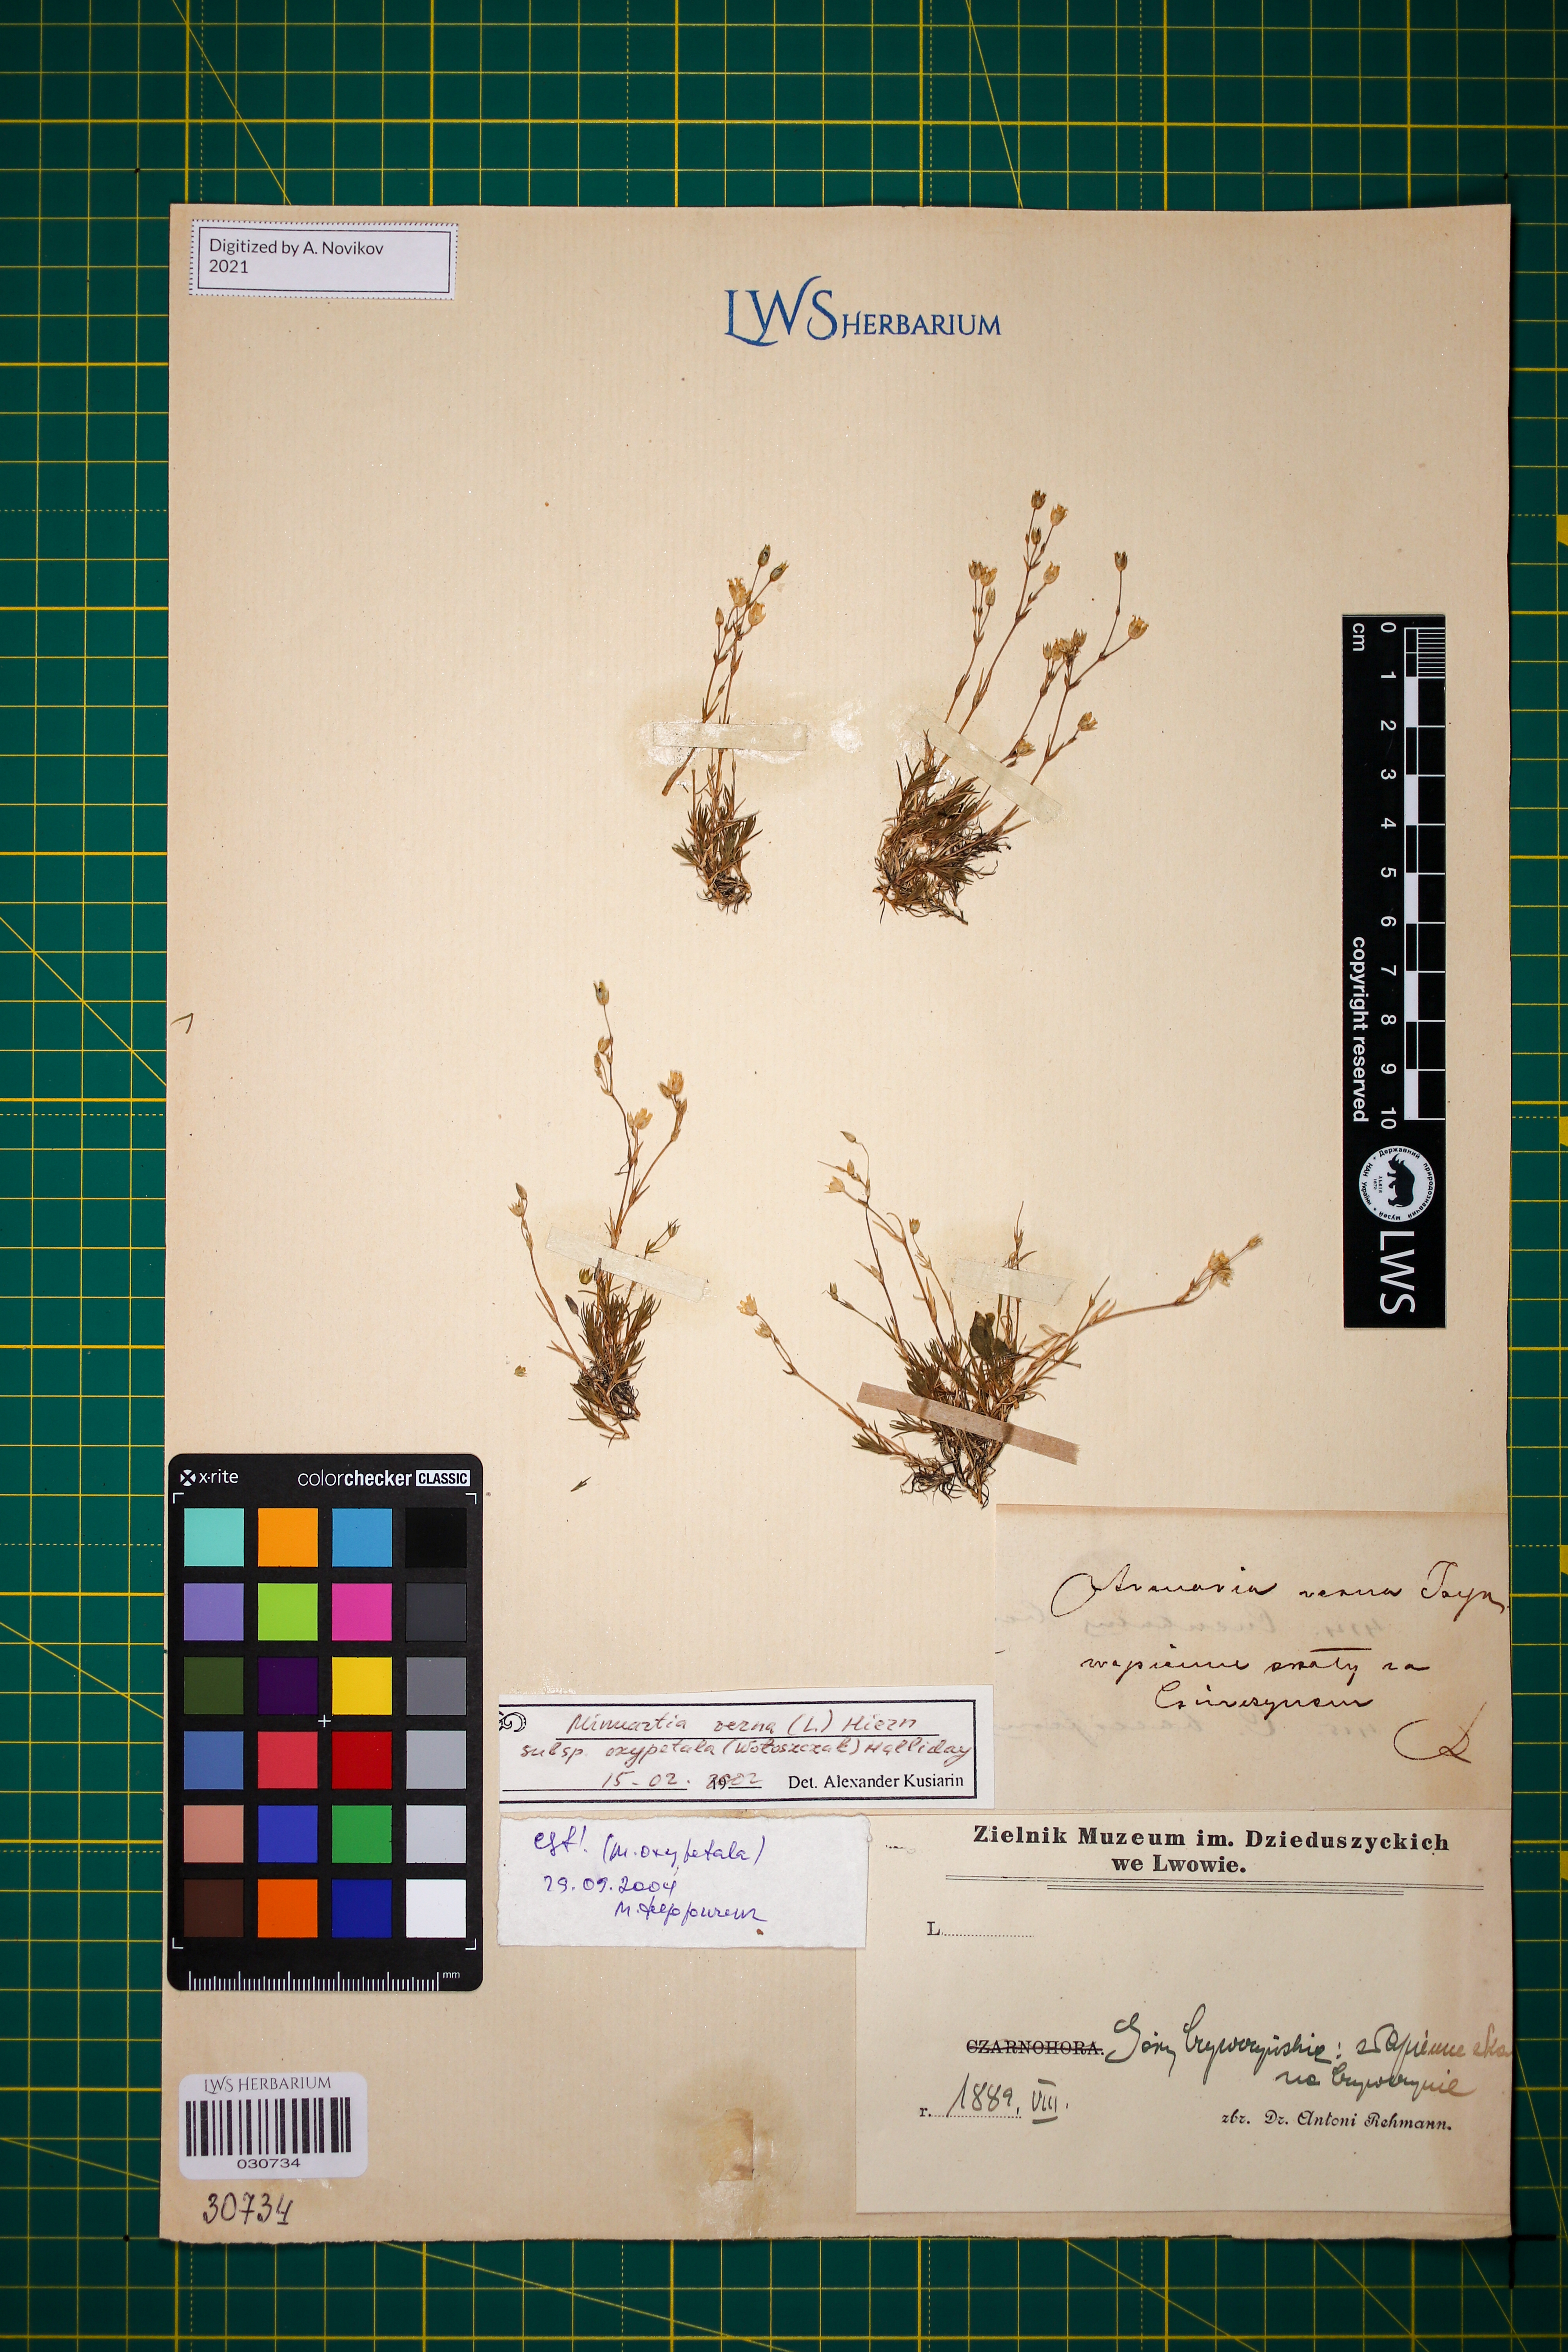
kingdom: Plantae
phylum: Tracheophyta
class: Magnoliopsida
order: Caryophyllales
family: Caryophyllaceae
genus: Sabulina
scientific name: Sabulina oxypetala
